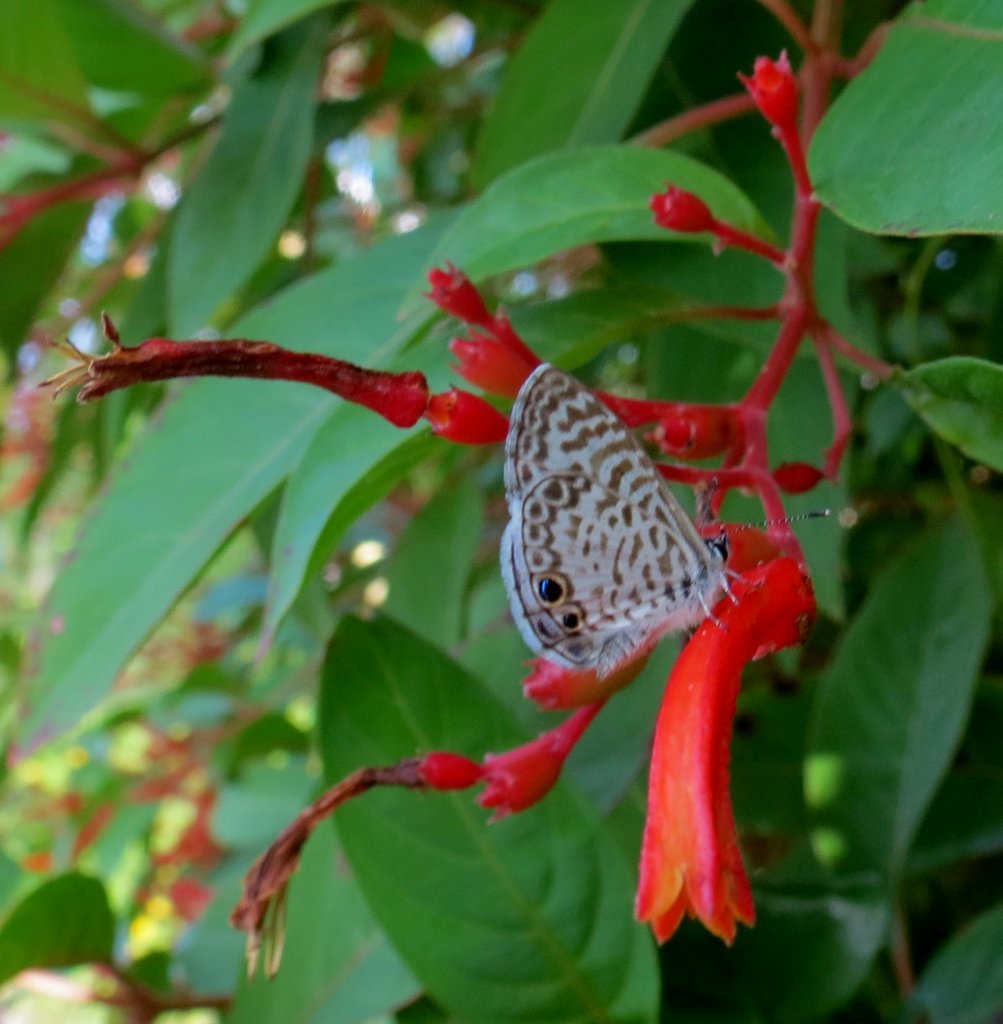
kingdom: Animalia
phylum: Arthropoda
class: Insecta
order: Lepidoptera
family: Lycaenidae
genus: Leptotes
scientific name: Leptotes cassius
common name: Cassius Blue
